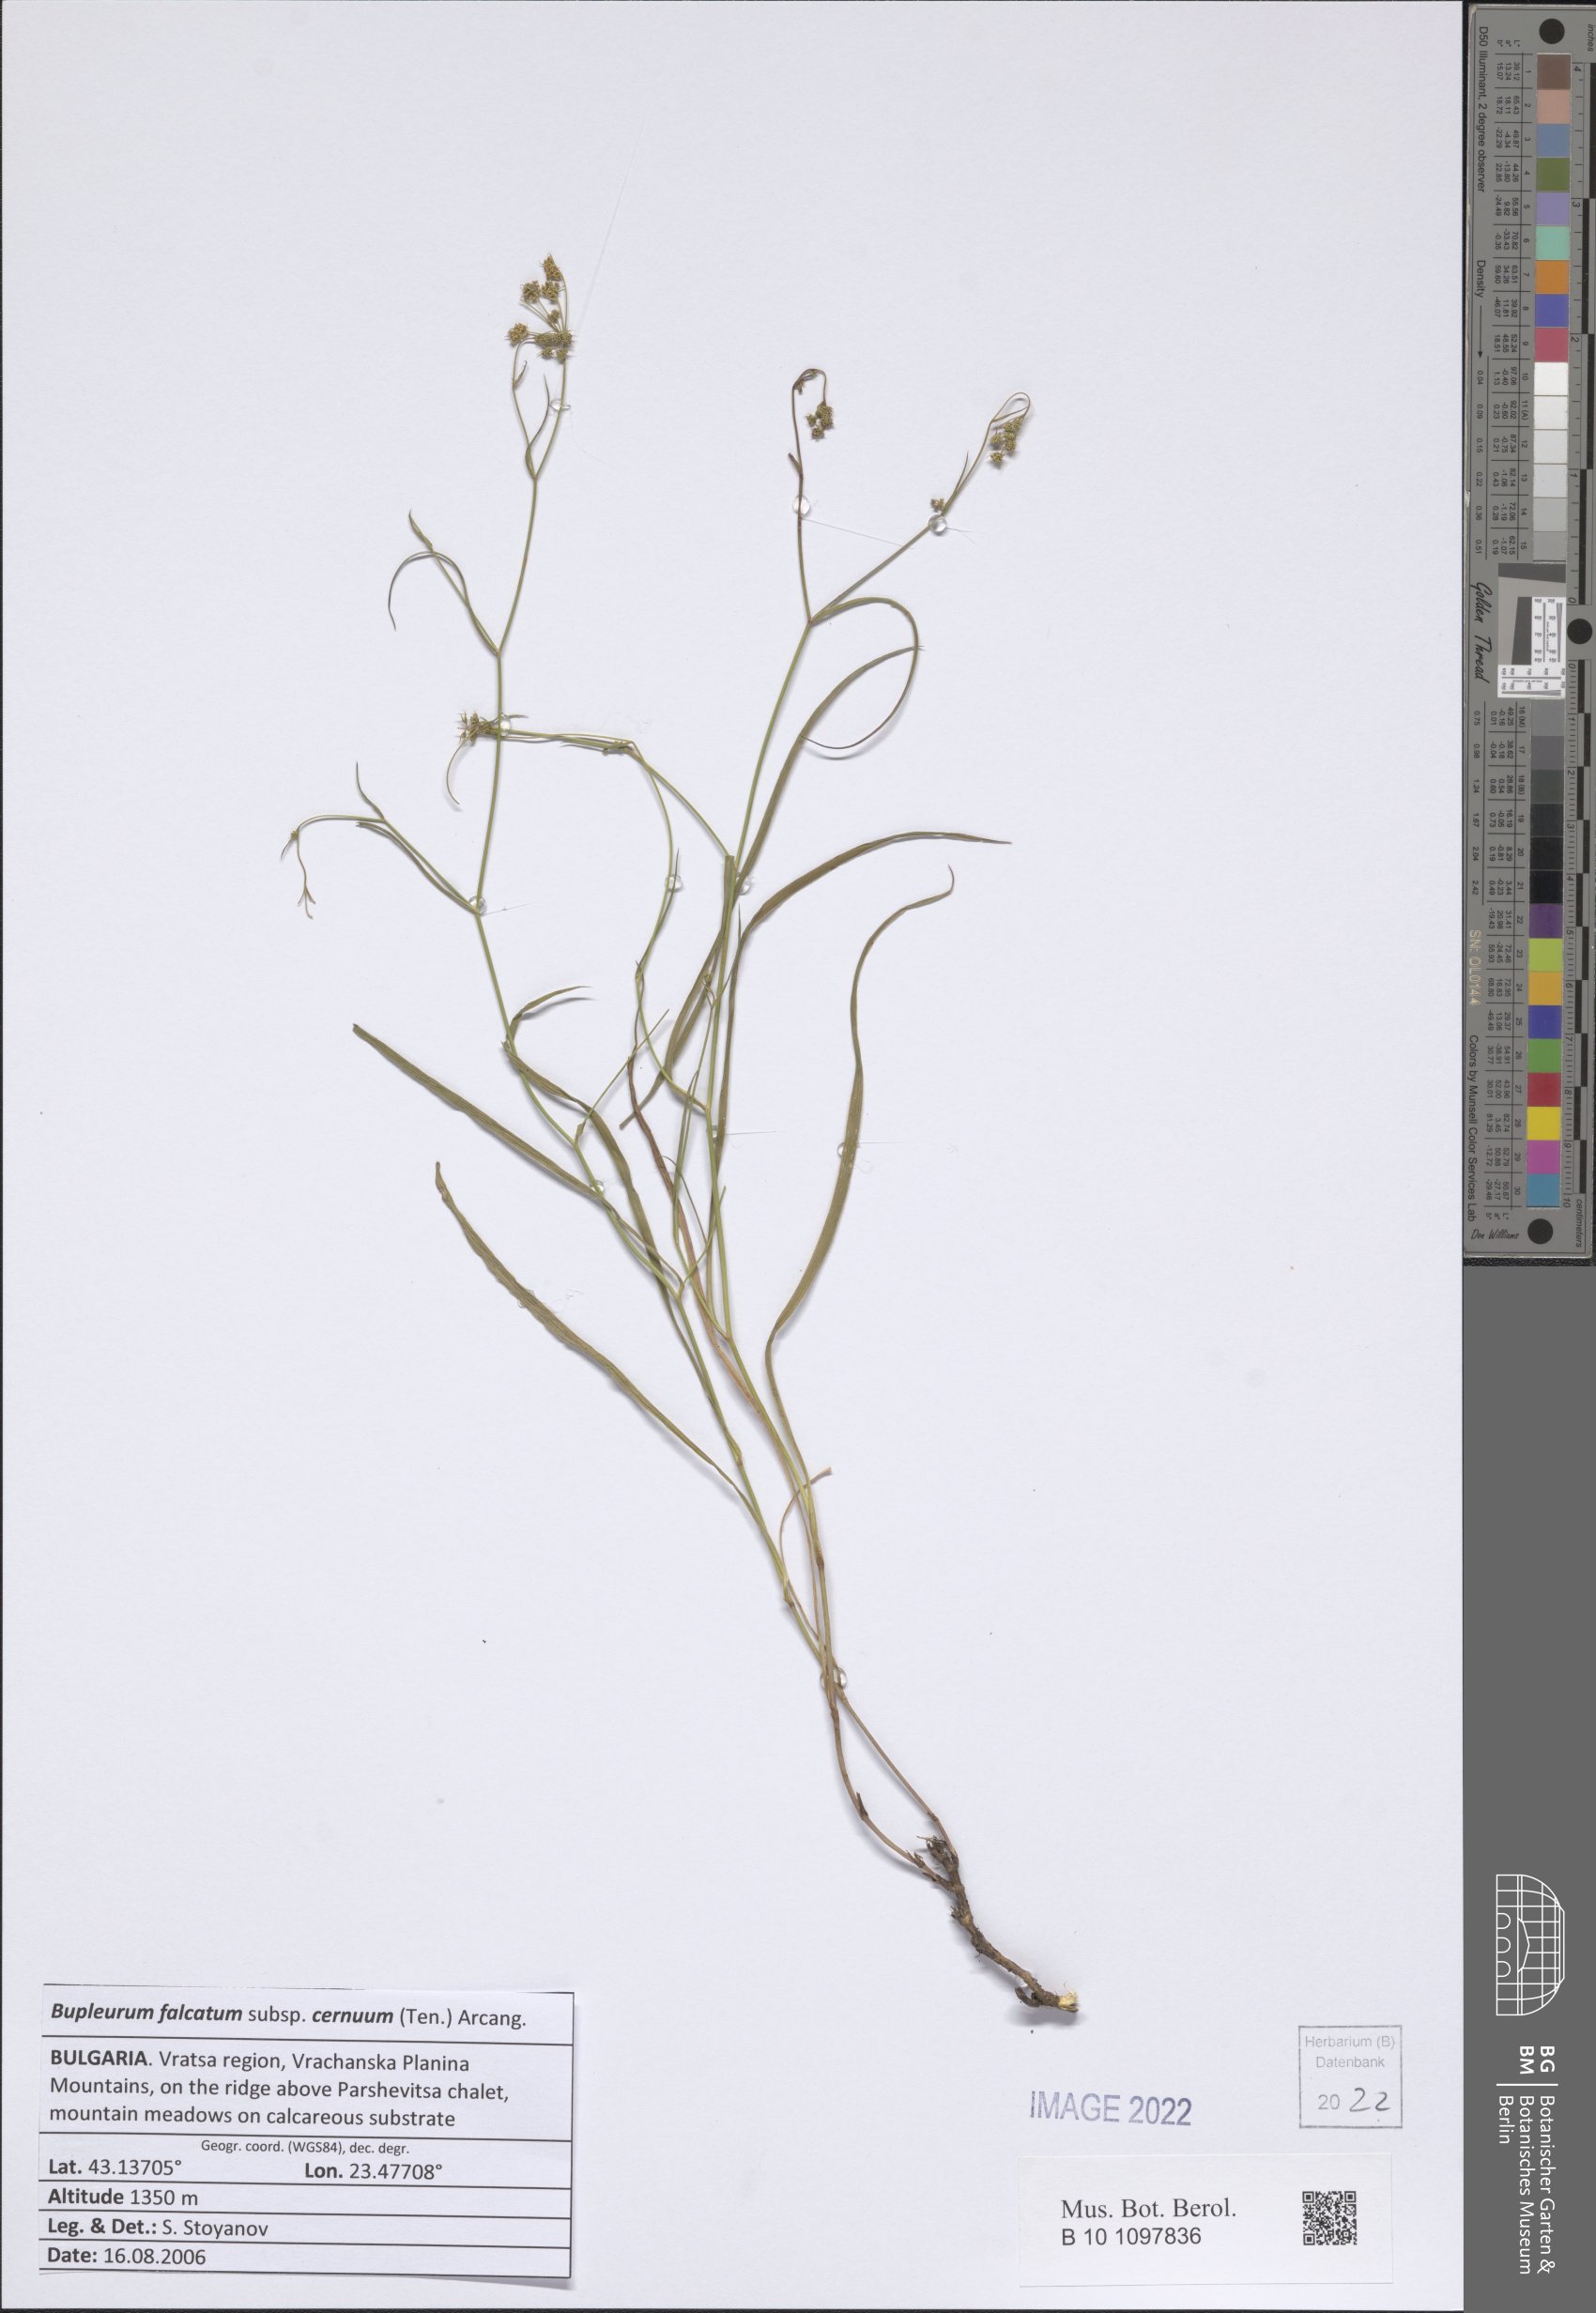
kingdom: Plantae
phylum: Tracheophyta
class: Magnoliopsida
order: Apiales
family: Apiaceae
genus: Bupleurum
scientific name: Bupleurum exaltatum
